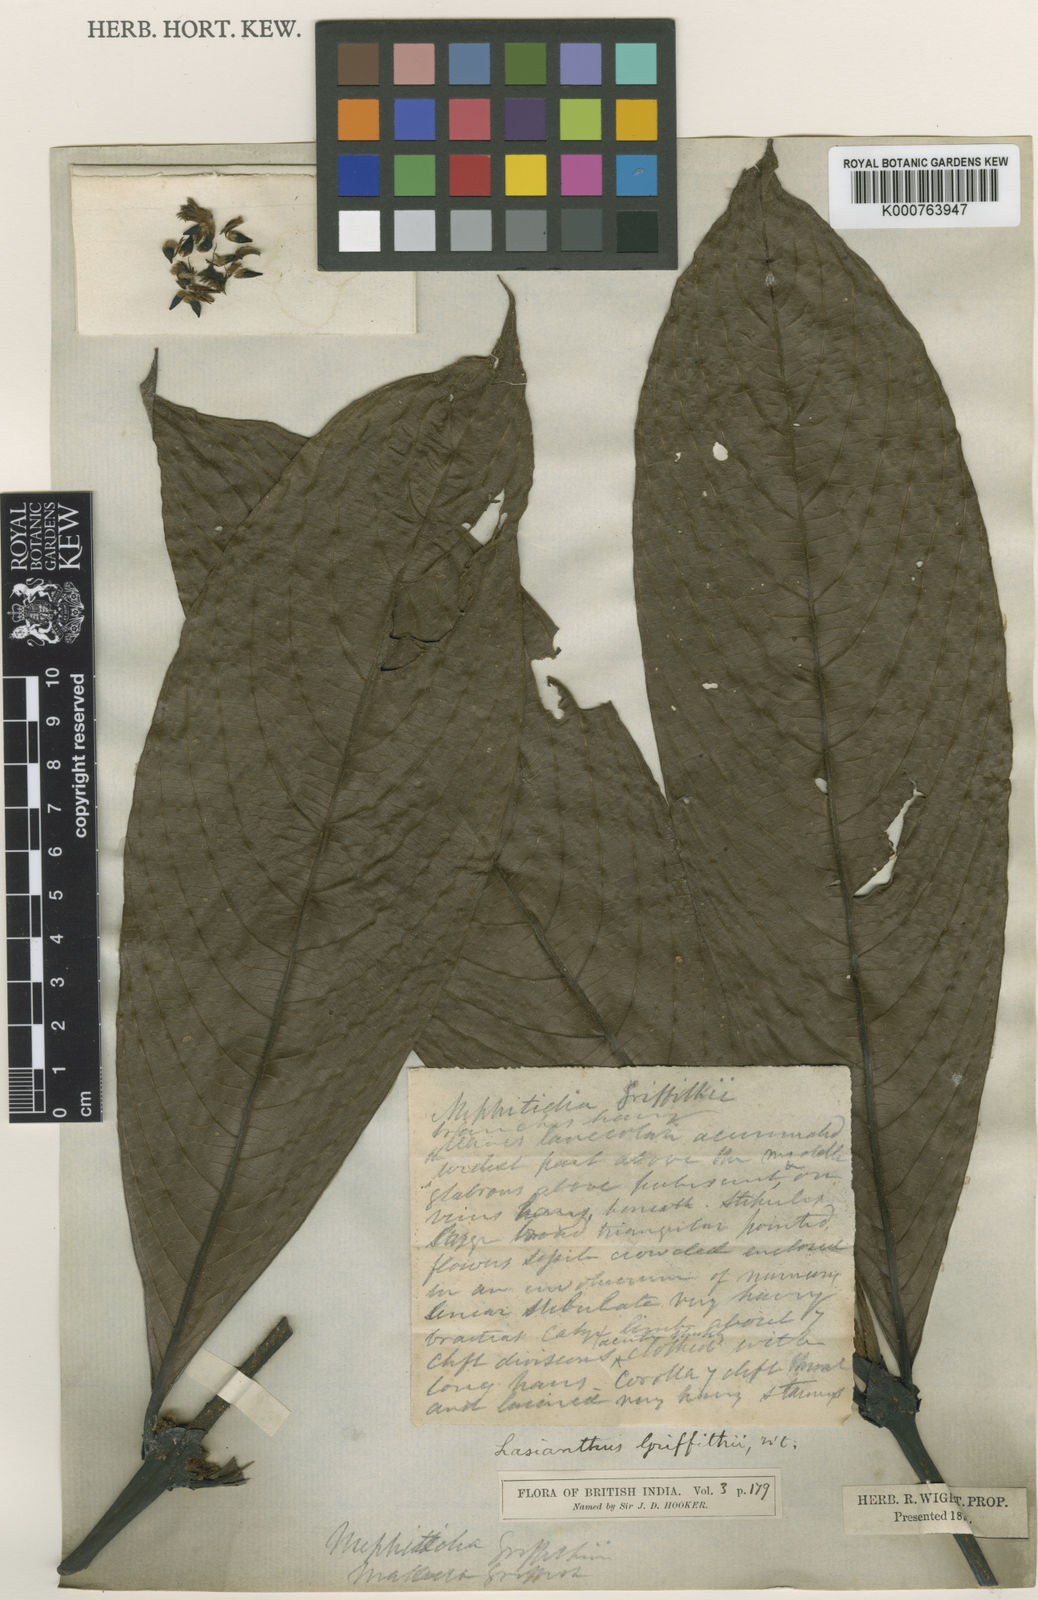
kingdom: Plantae
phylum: Tracheophyta
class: Magnoliopsida
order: Gentianales
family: Rubiaceae
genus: Lasianthus
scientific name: Lasianthus griffithii
